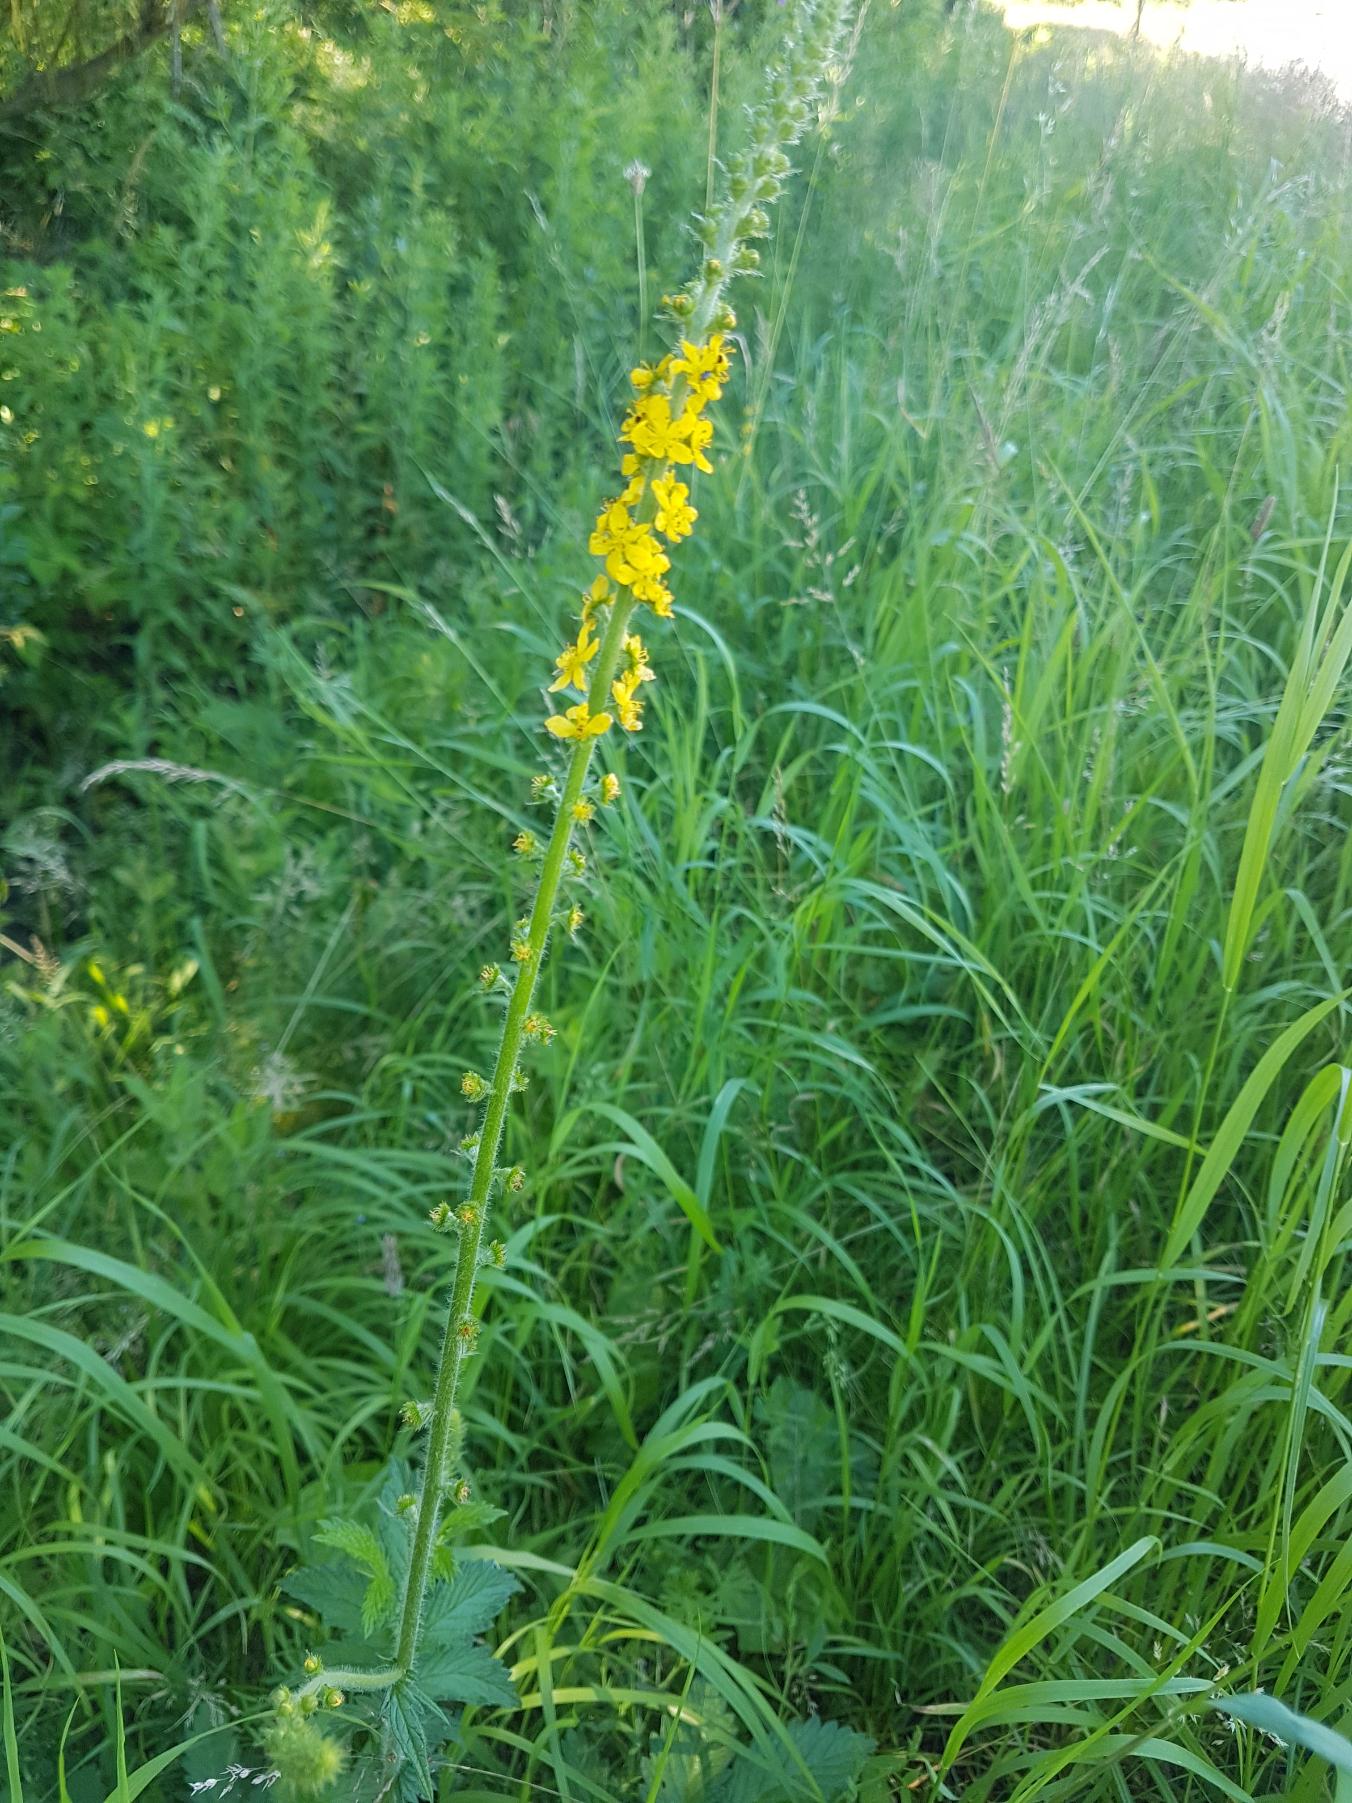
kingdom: Plantae
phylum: Tracheophyta
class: Magnoliopsida
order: Rosales
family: Rosaceae
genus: Agrimonia
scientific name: Agrimonia eupatoria
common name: Almindelig agermåne
